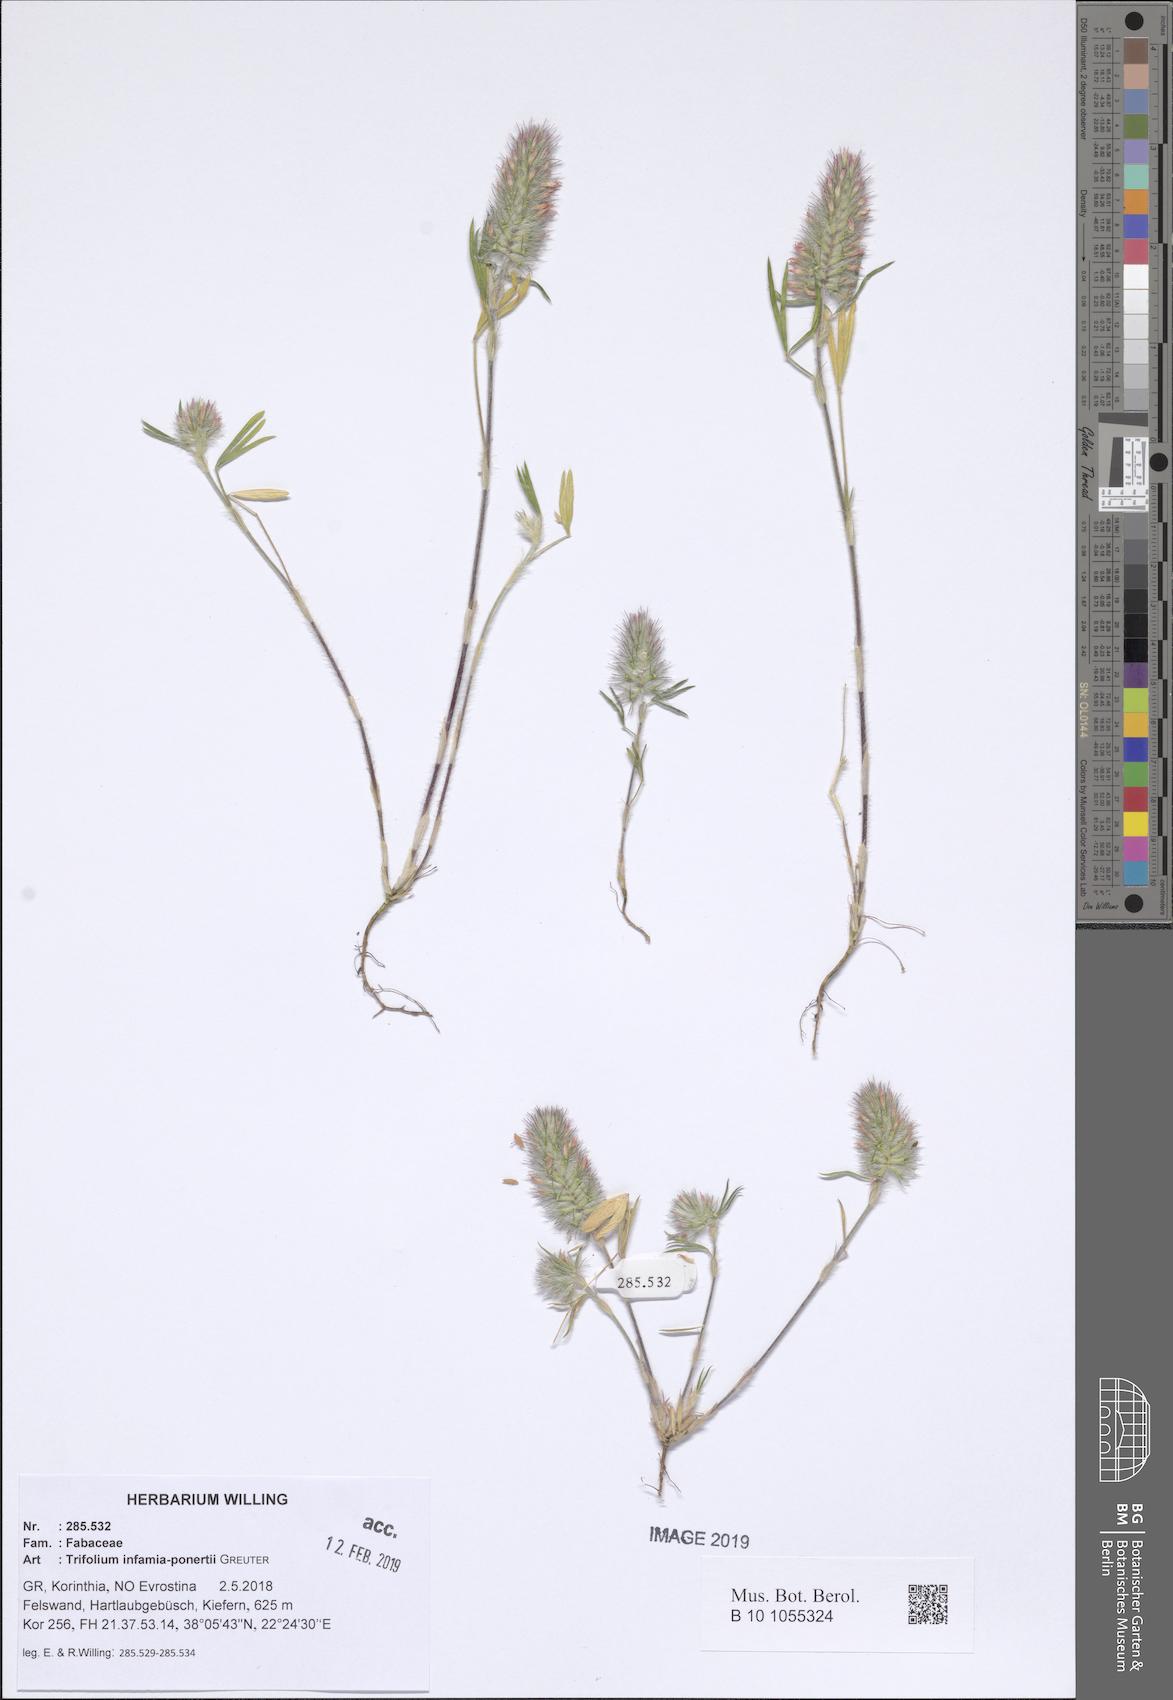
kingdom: Plantae
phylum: Tracheophyta
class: Magnoliopsida
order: Fabales
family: Fabaceae
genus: Trifolium
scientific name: Trifolium infamia-ponertii
